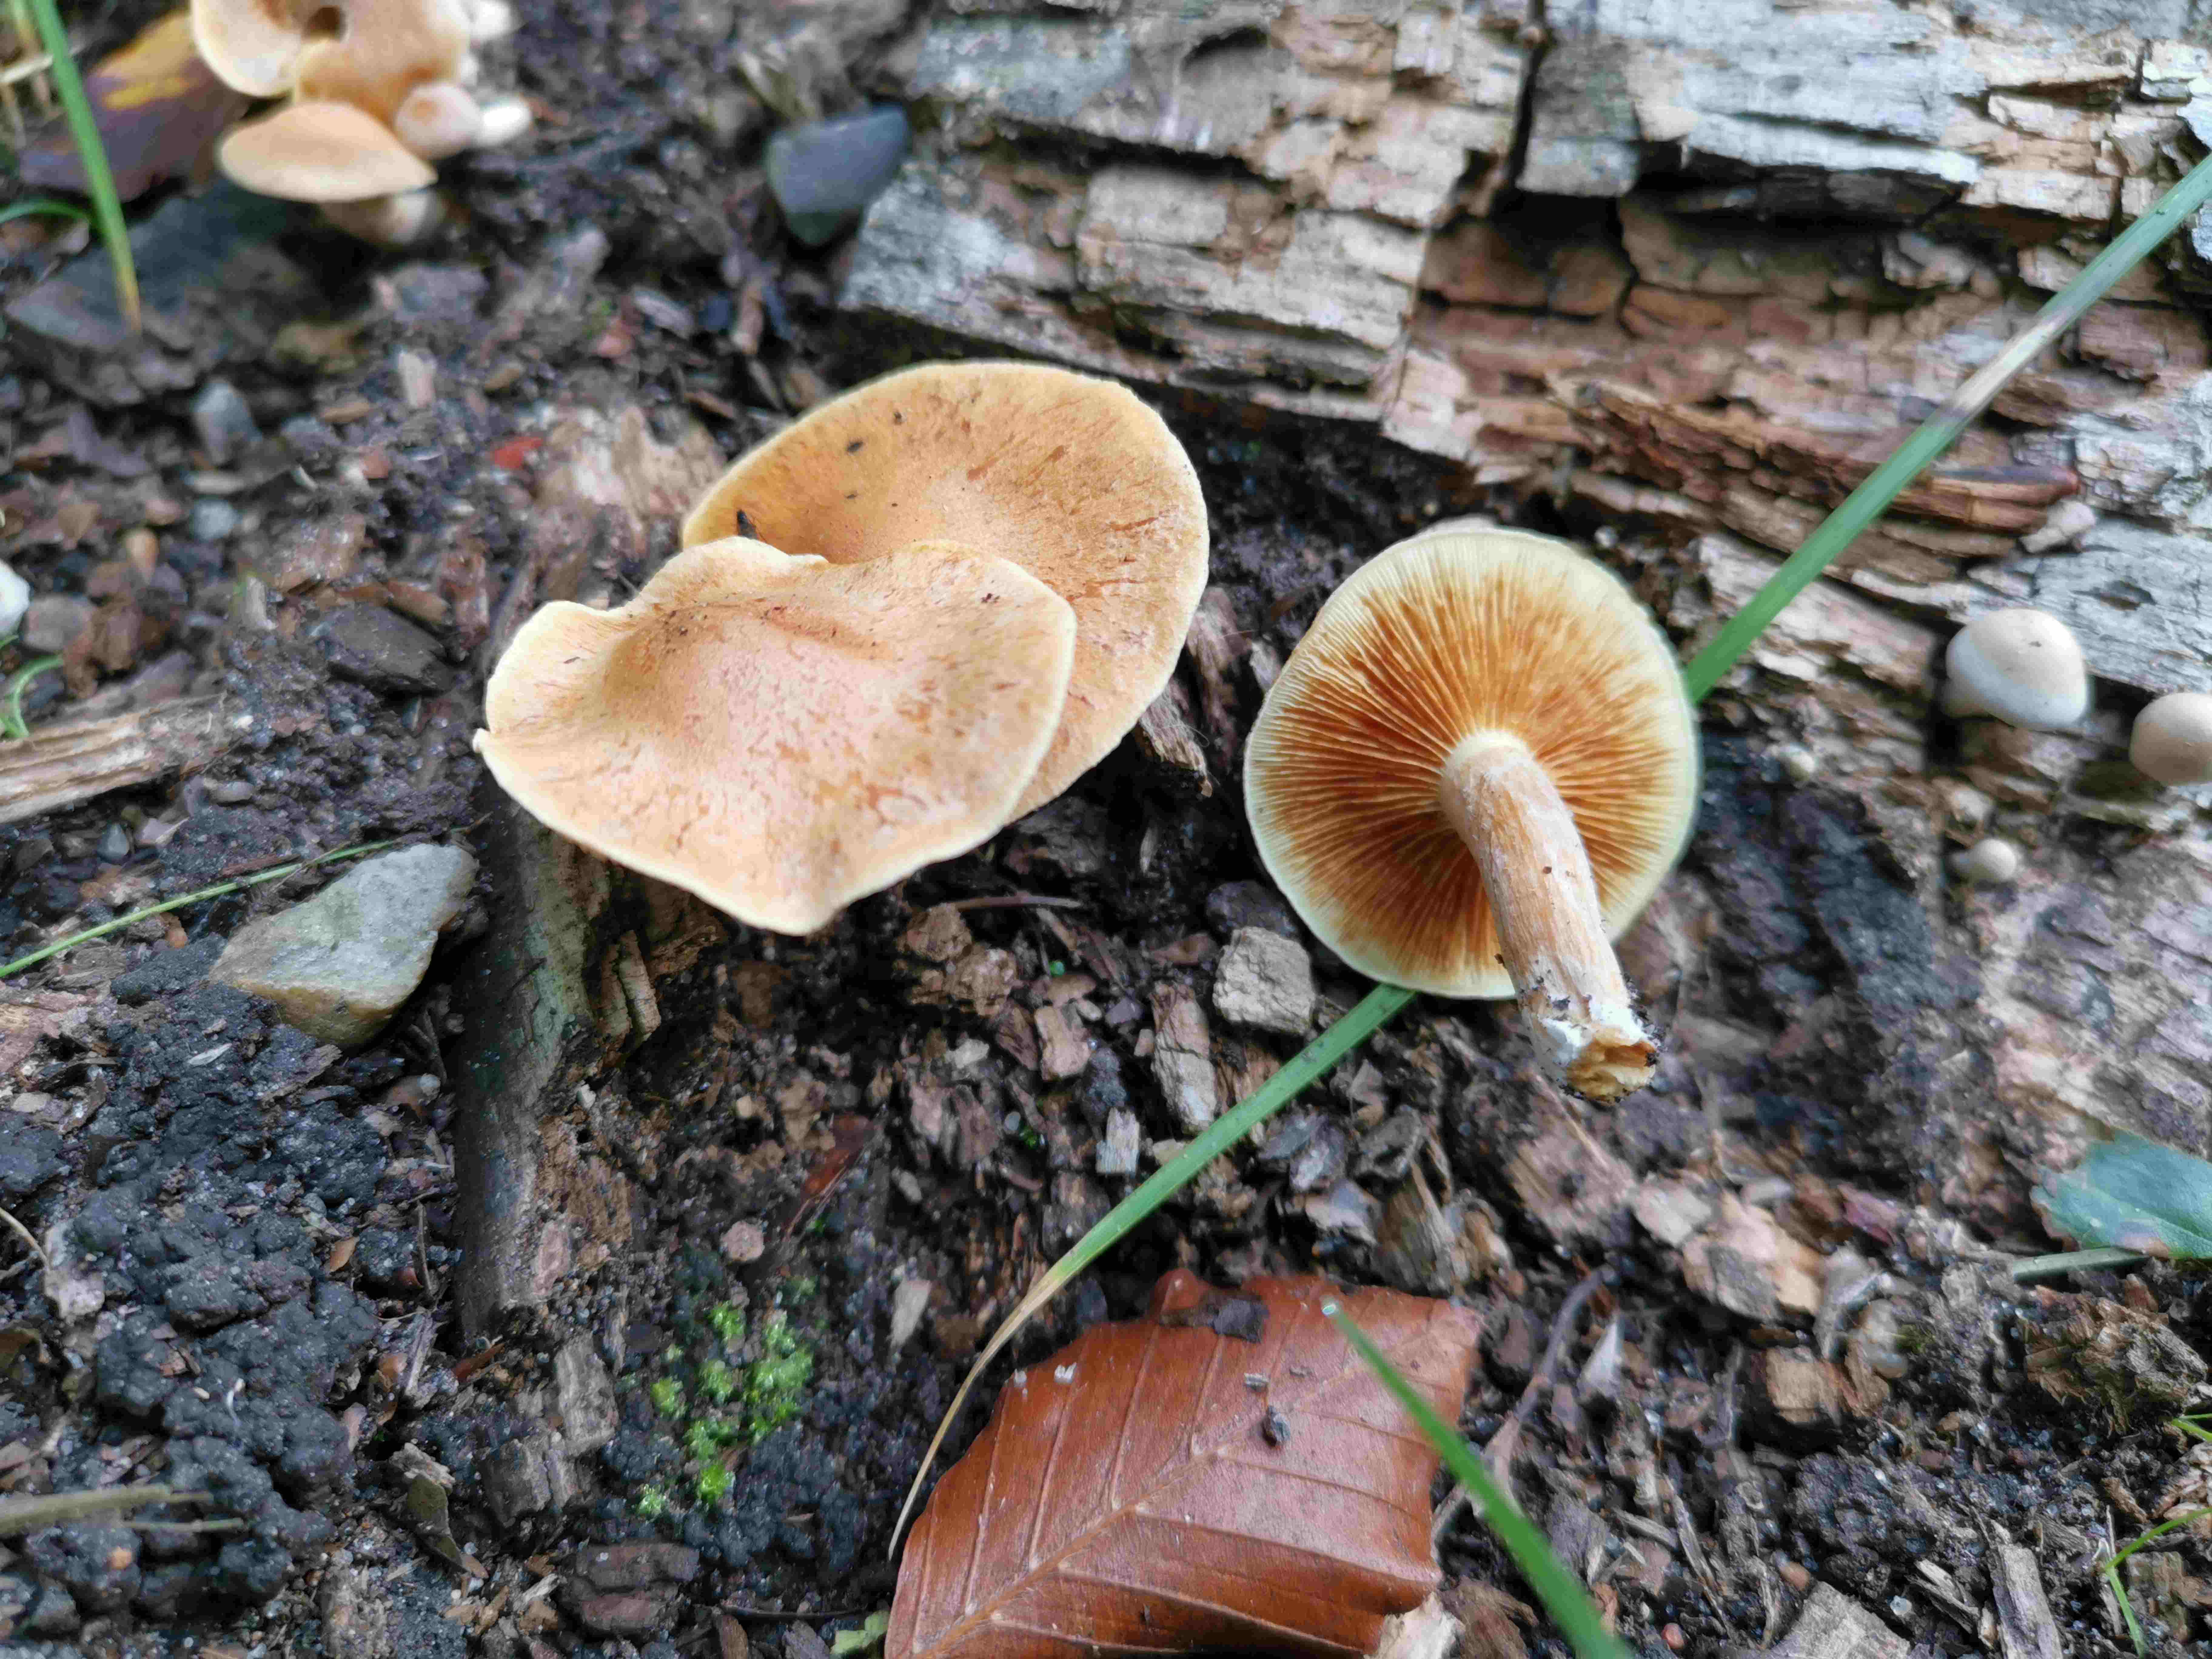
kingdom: Fungi
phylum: Basidiomycota
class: Agaricomycetes
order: Agaricales
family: Hymenogastraceae
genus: Gymnopilus
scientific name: Gymnopilus penetrans
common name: plettet flammehat
